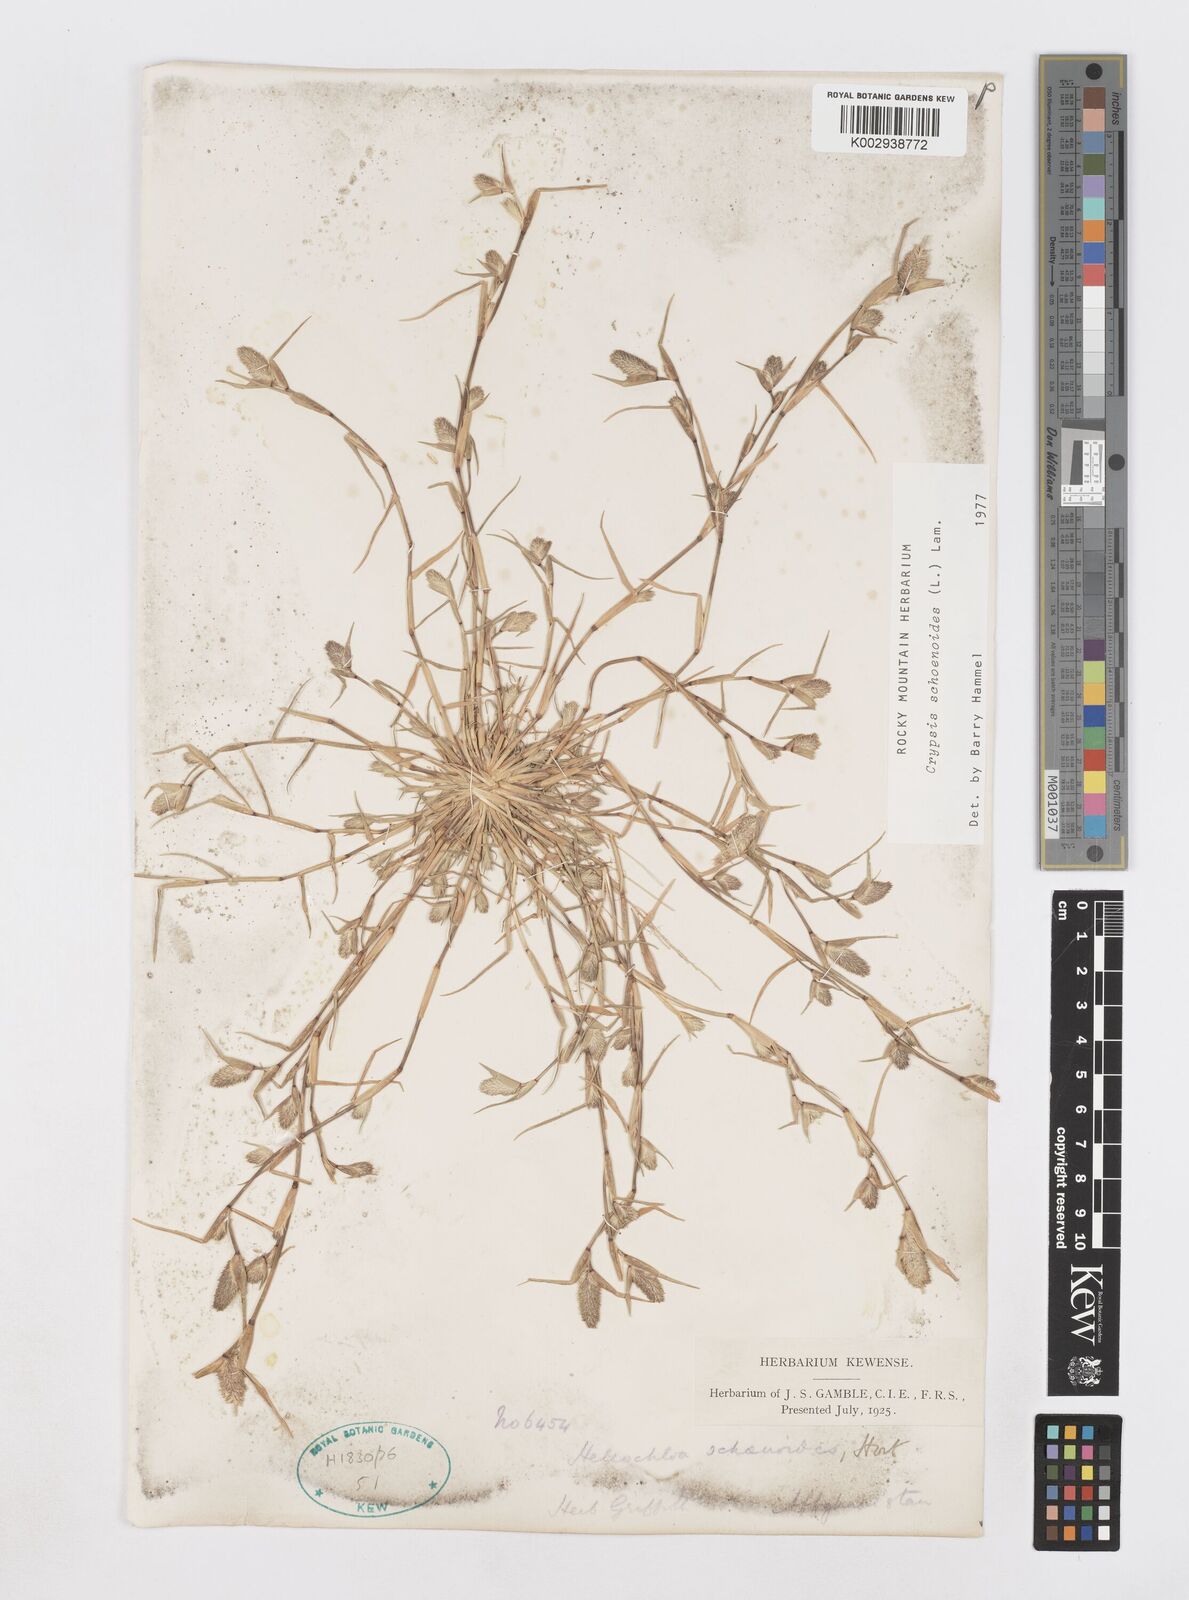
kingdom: Plantae
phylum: Tracheophyta
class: Liliopsida
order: Poales
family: Poaceae
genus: Sporobolus
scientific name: Sporobolus schoenoides
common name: Rush-like timothy
